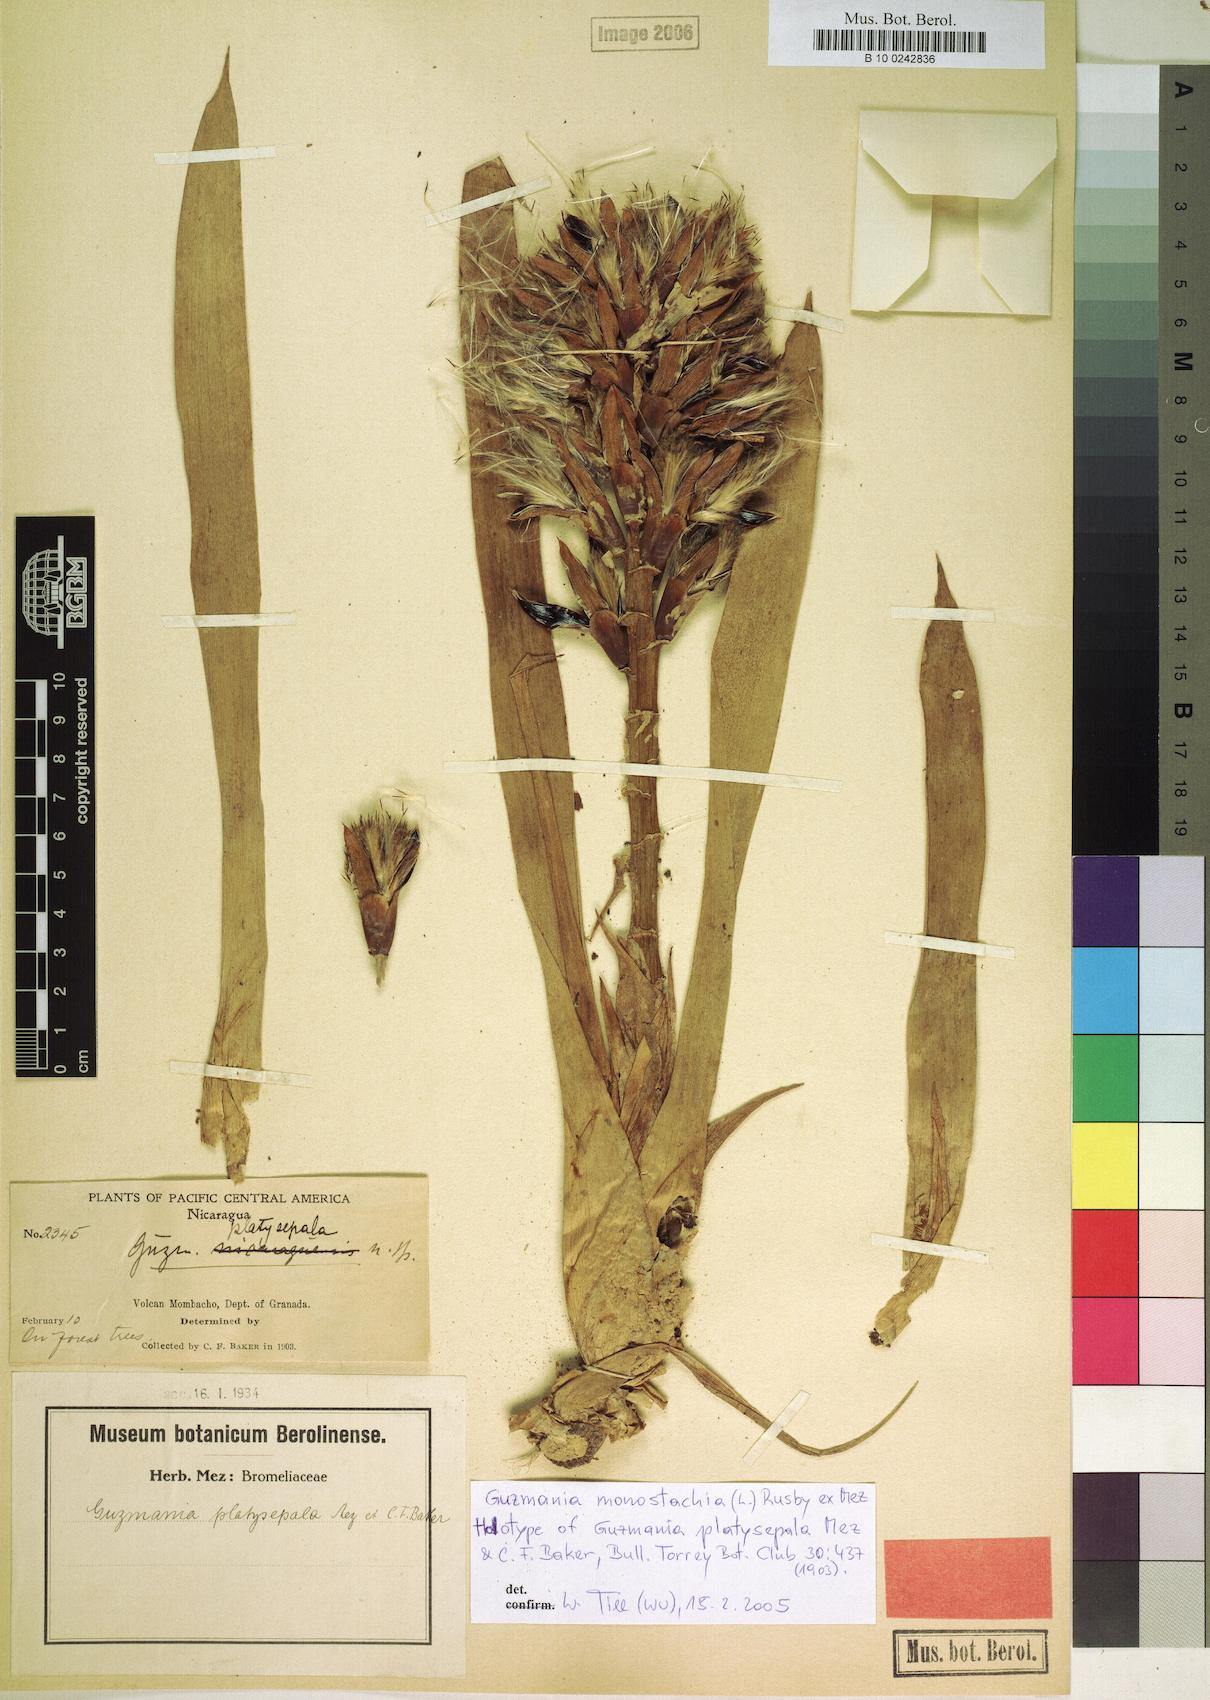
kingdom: Plantae
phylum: Tracheophyta
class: Liliopsida
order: Poales
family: Bromeliaceae
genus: Guzmania
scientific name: Guzmania monostachia
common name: West indian tufted airplant
